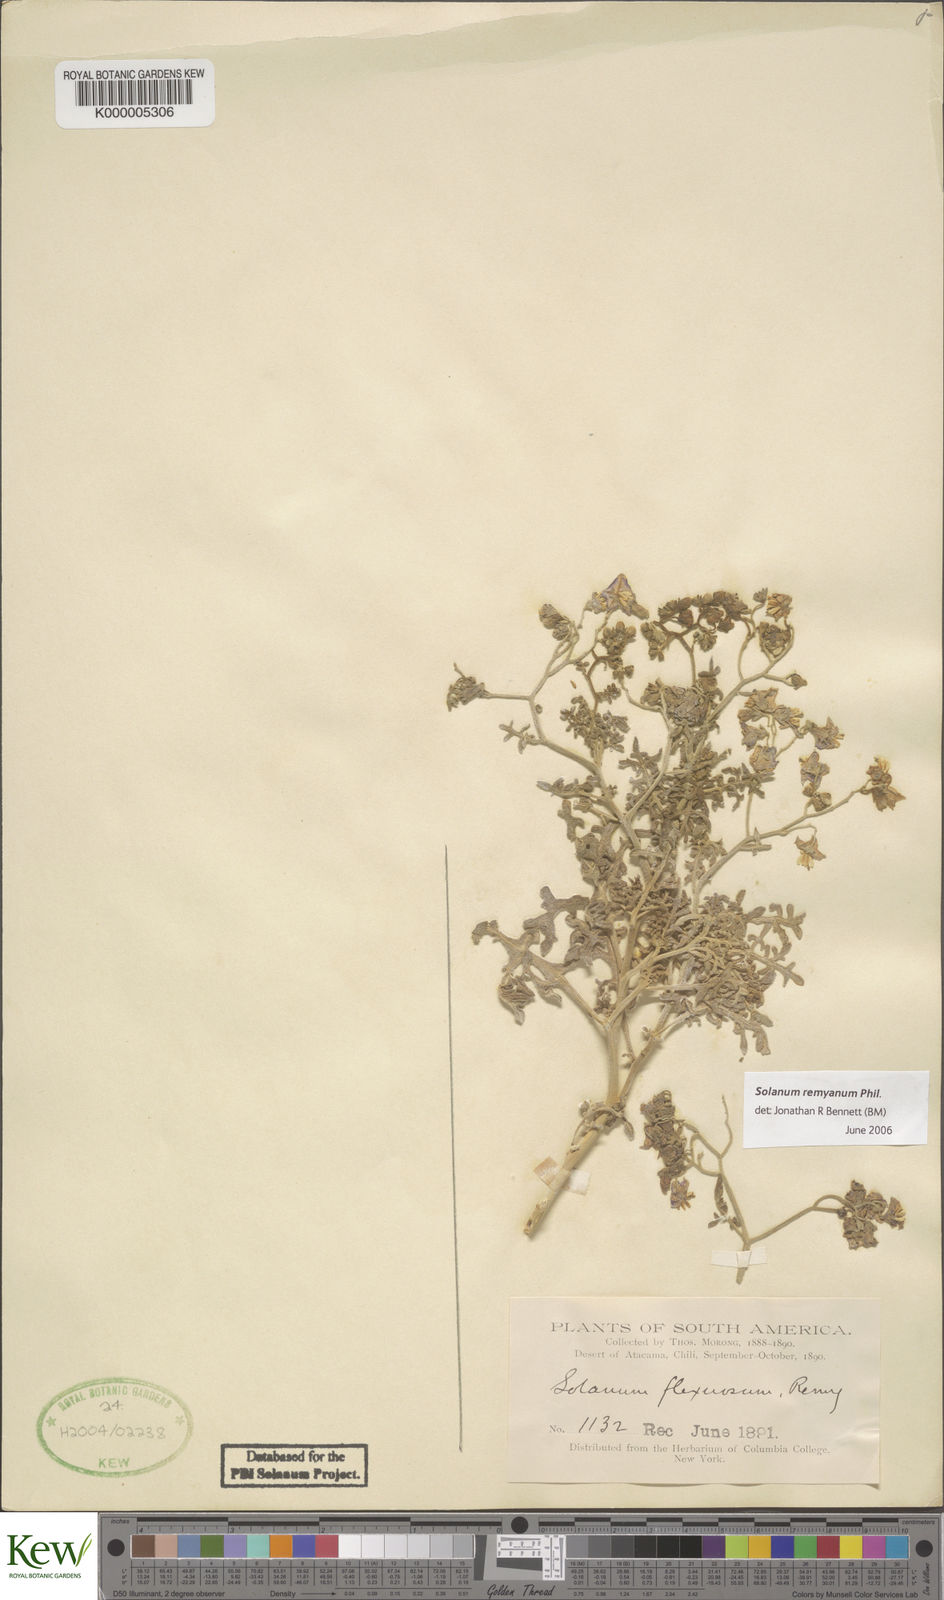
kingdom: Plantae
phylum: Tracheophyta
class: Magnoliopsida
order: Solanales
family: Solanaceae
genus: Solanum
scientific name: Solanum remyanum
